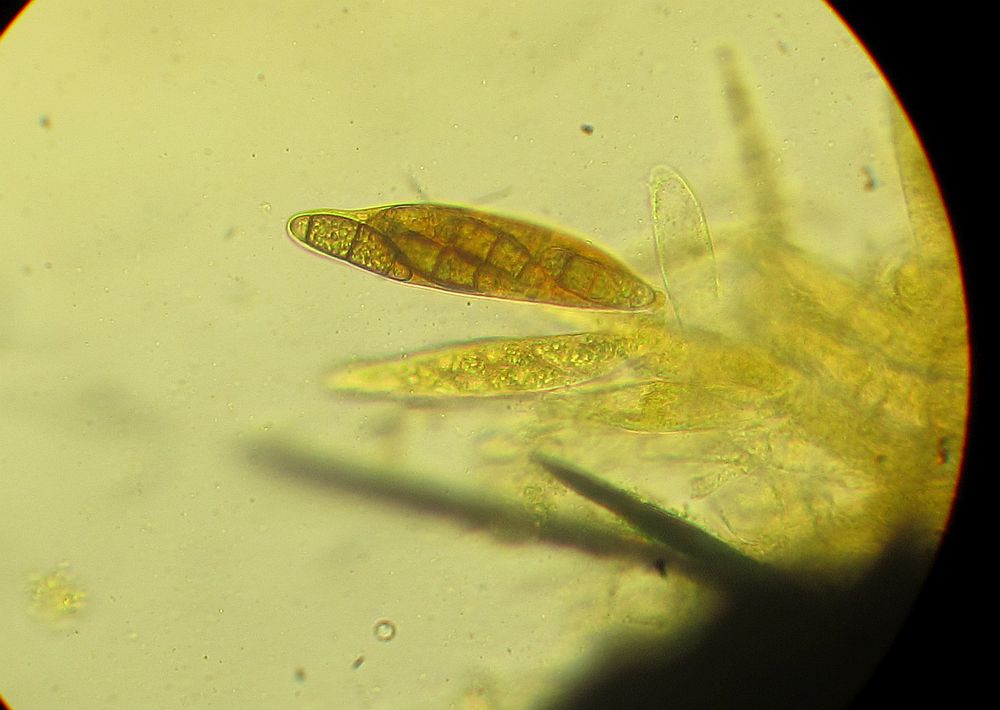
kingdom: Fungi
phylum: Ascomycota
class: Sordariomycetes
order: Coronophorales
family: Chaetosphaerellaceae
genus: Chaetosphaerella
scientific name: Chaetosphaerella phaeostroma
